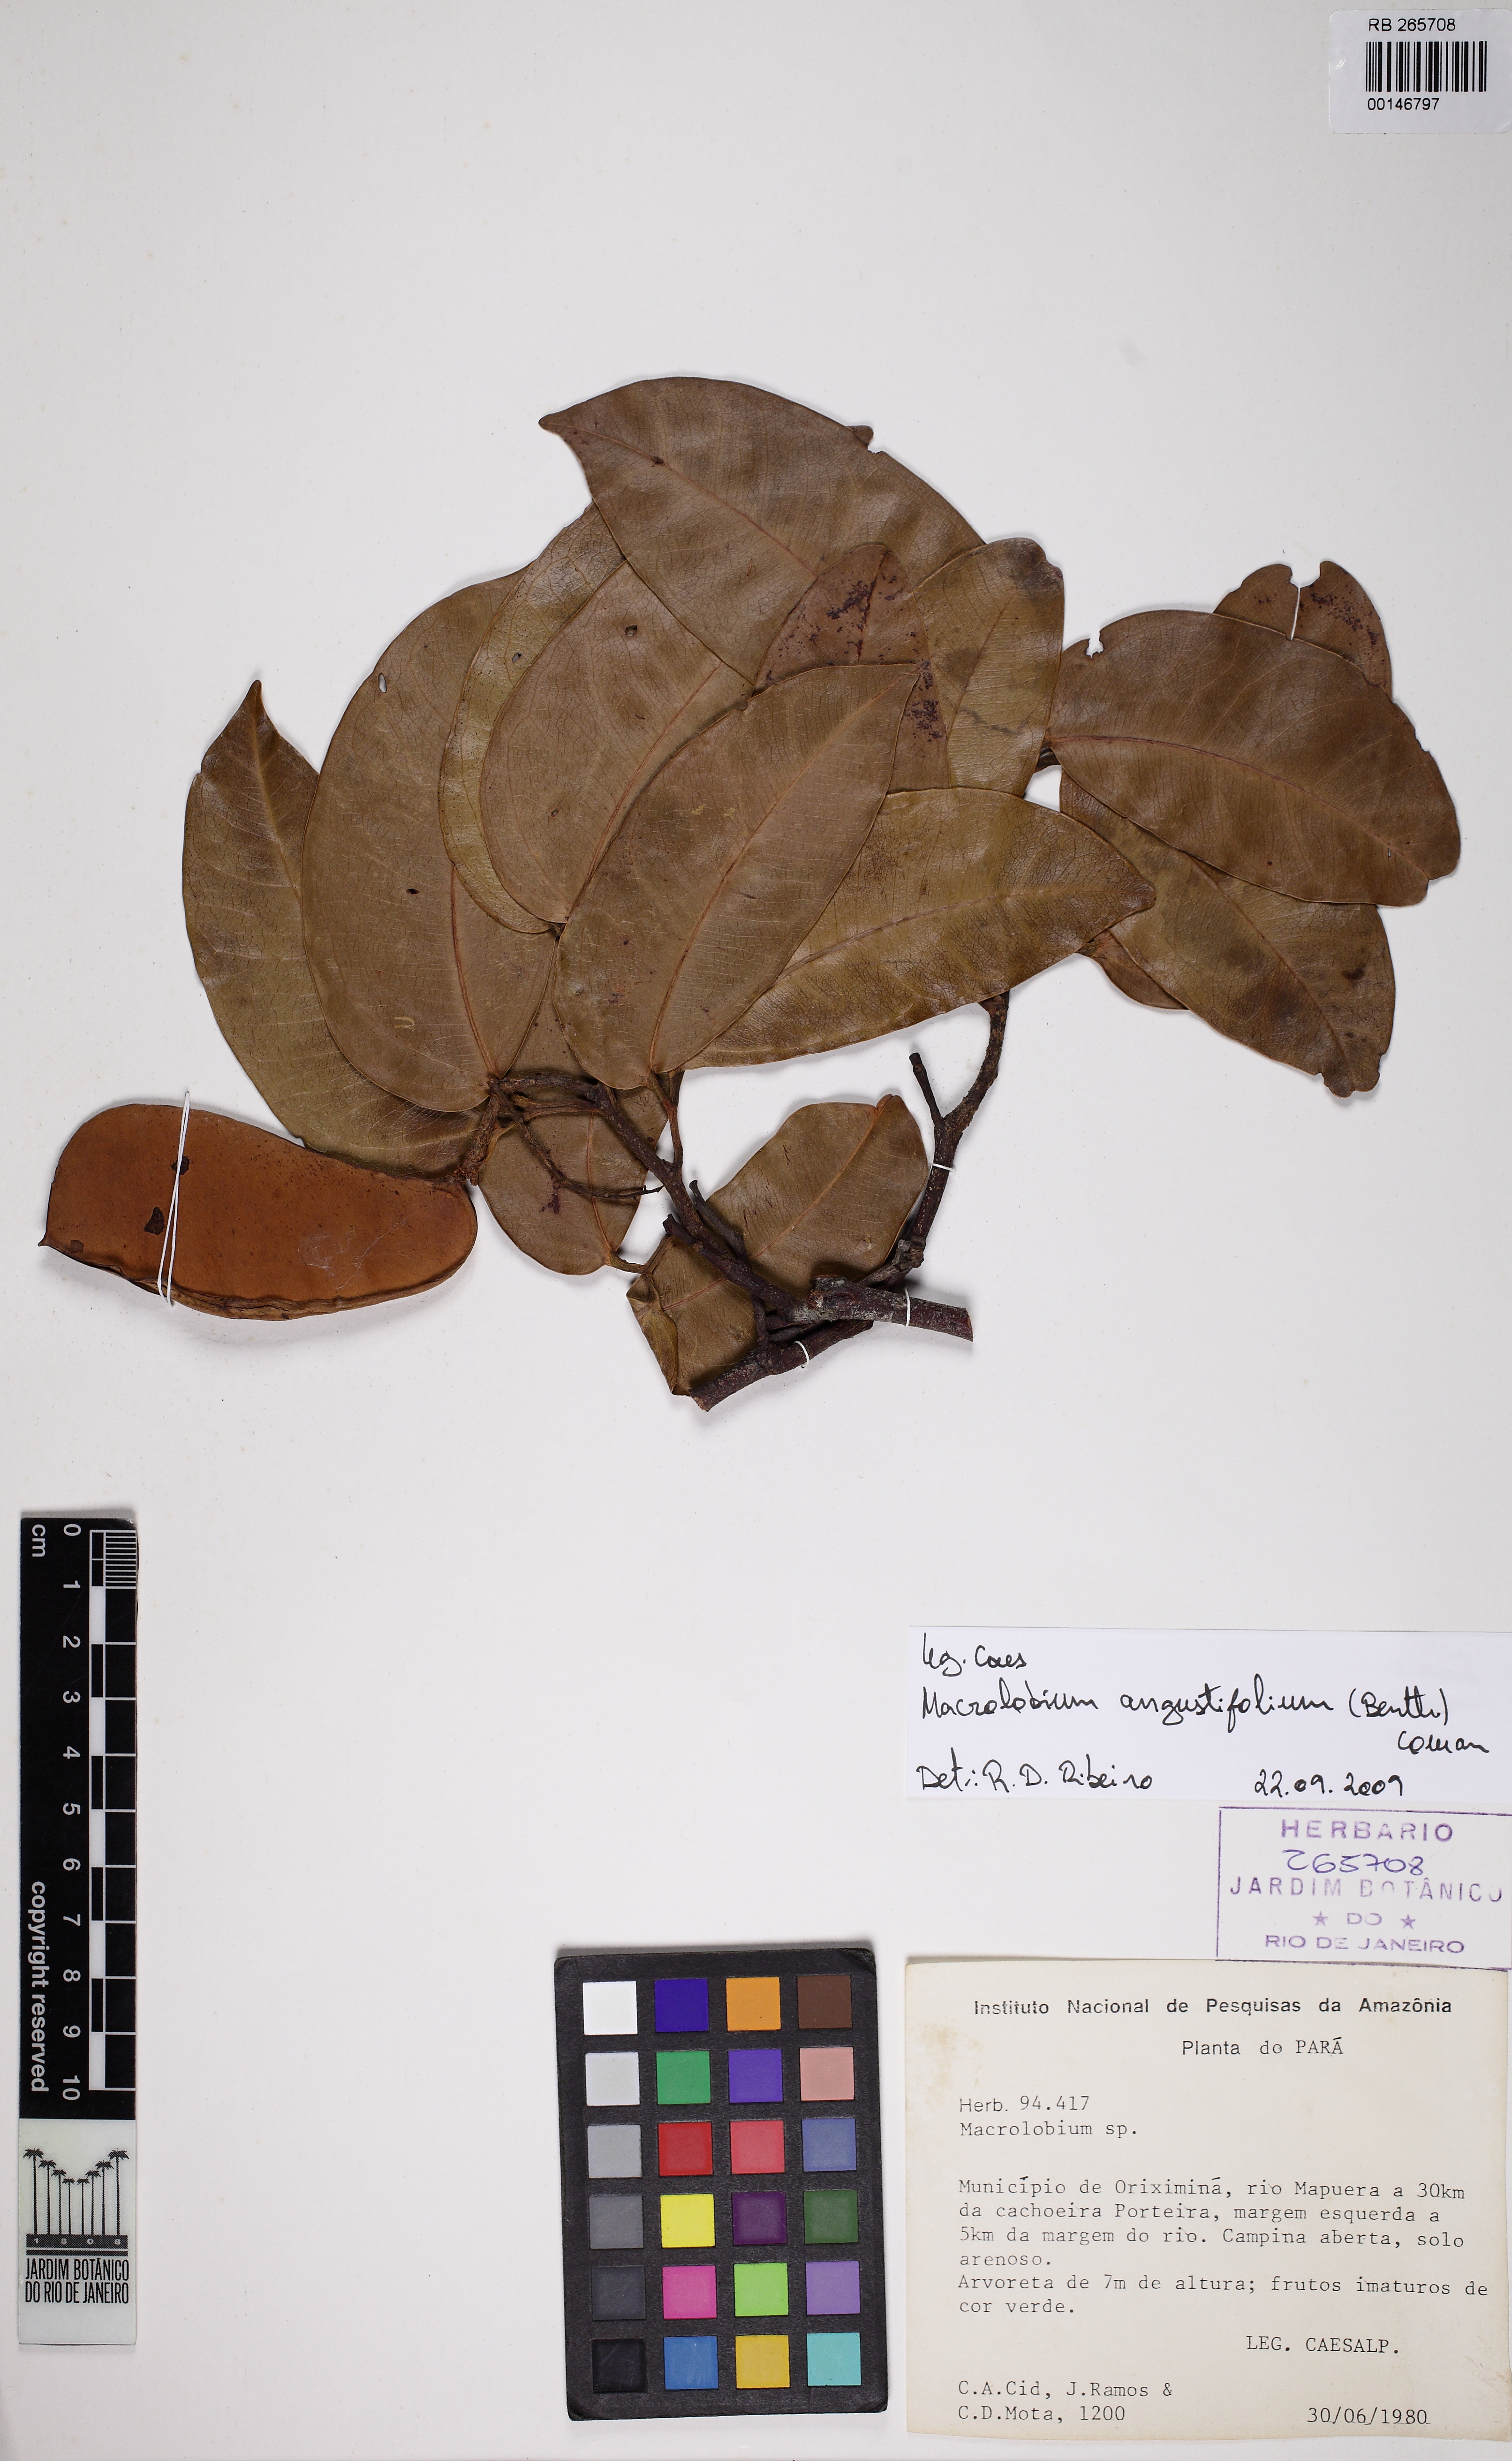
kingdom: Plantae
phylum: Tracheophyta
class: Magnoliopsida
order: Fabales
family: Fabaceae
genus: Macrolobium
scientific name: Macrolobium angustifolium
